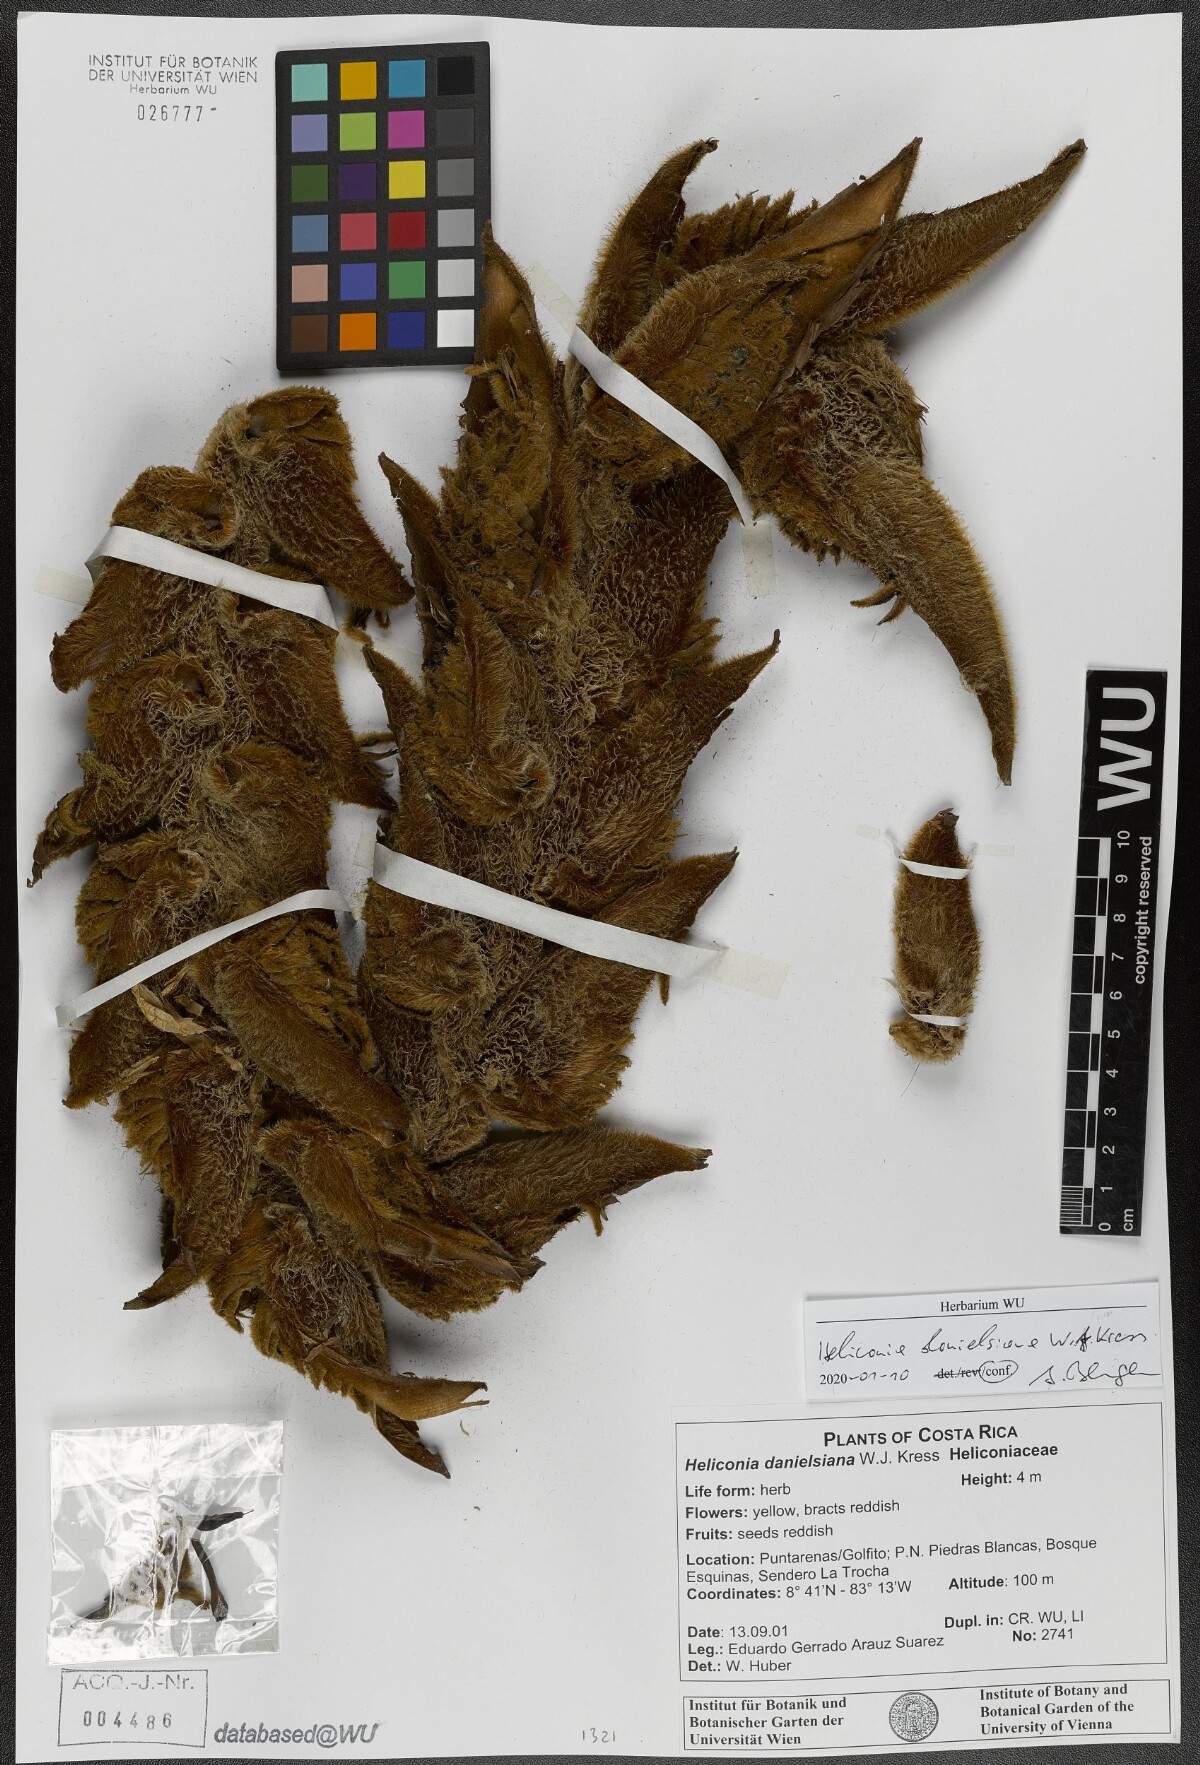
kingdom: Plantae
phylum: Tracheophyta
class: Liliopsida
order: Zingiberales
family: Heliconiaceae
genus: Heliconia
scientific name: Heliconia danielsiana
